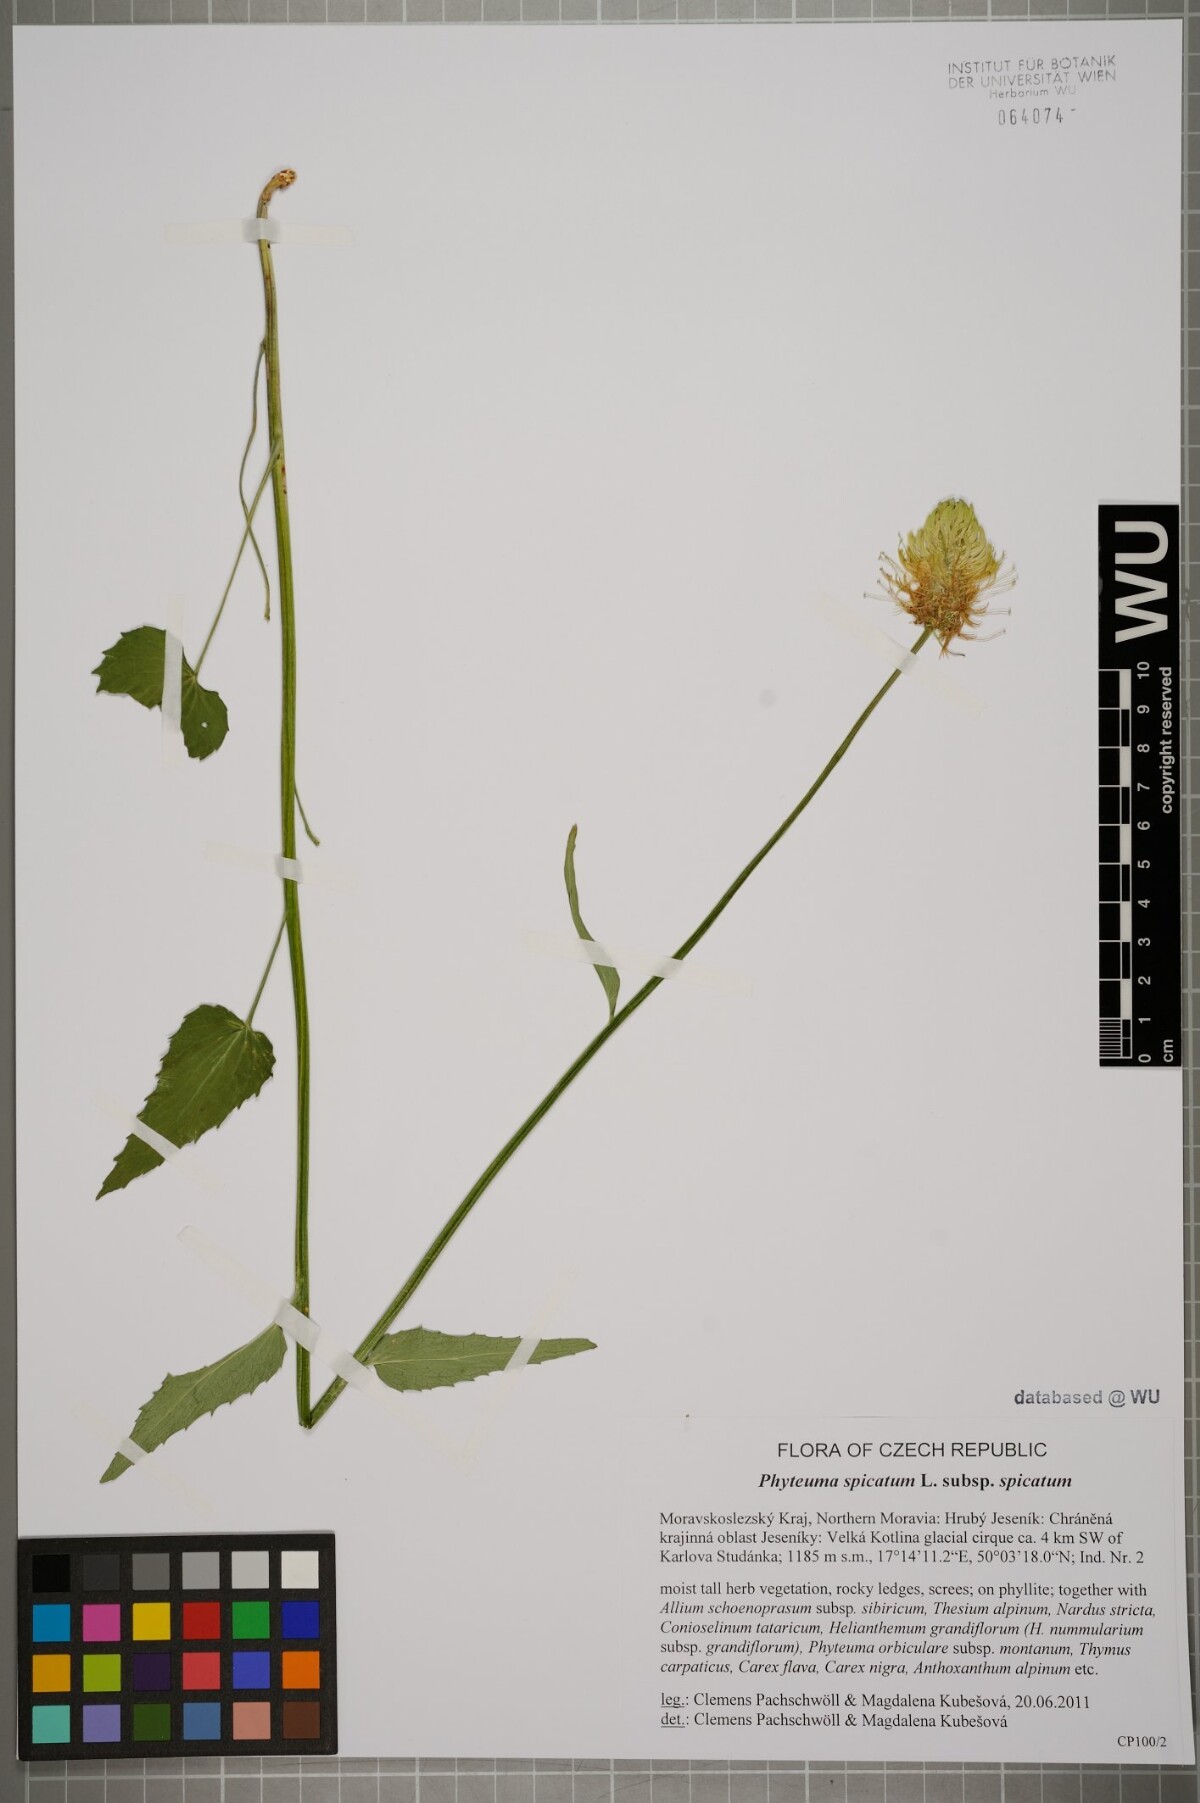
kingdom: Plantae
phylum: Tracheophyta
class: Magnoliopsida
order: Asterales
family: Campanulaceae
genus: Phyteuma
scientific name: Phyteuma spicatum
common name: Spiked rampion
